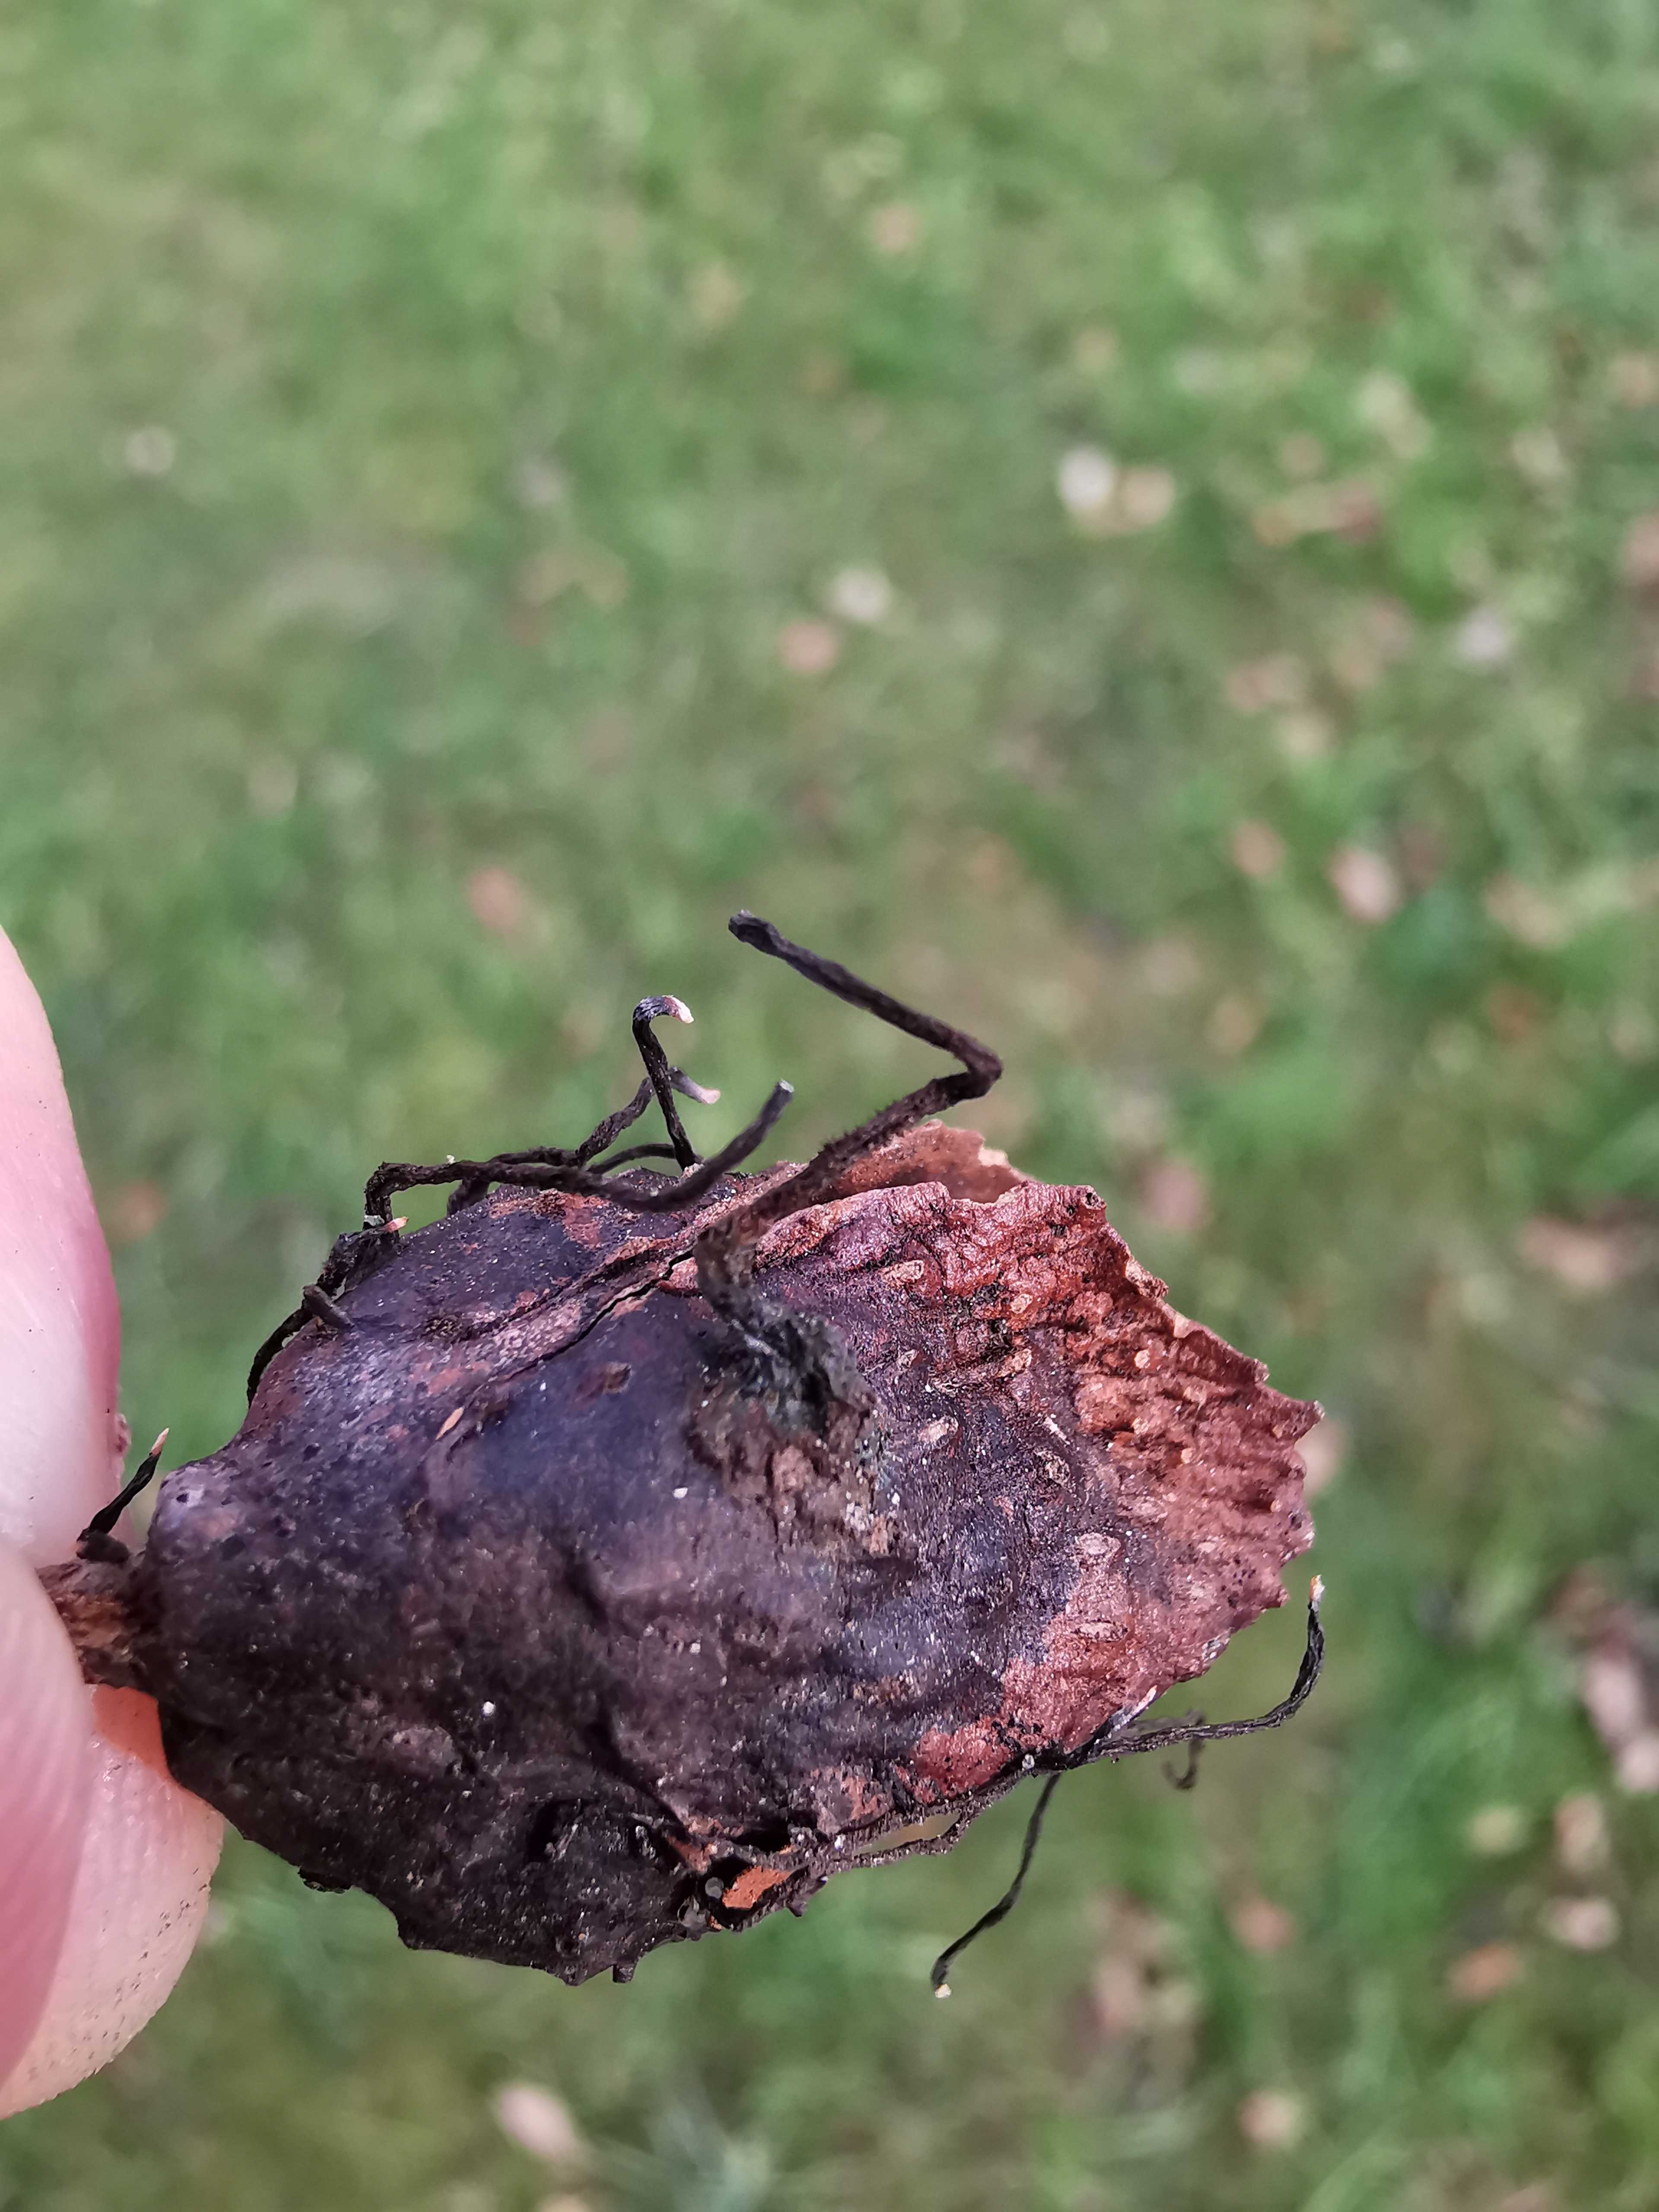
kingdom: Fungi
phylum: Ascomycota
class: Sordariomycetes
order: Xylariales
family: Xylariaceae
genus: Xylaria
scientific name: Xylaria carpophila
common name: bogskål-stødsvamp
